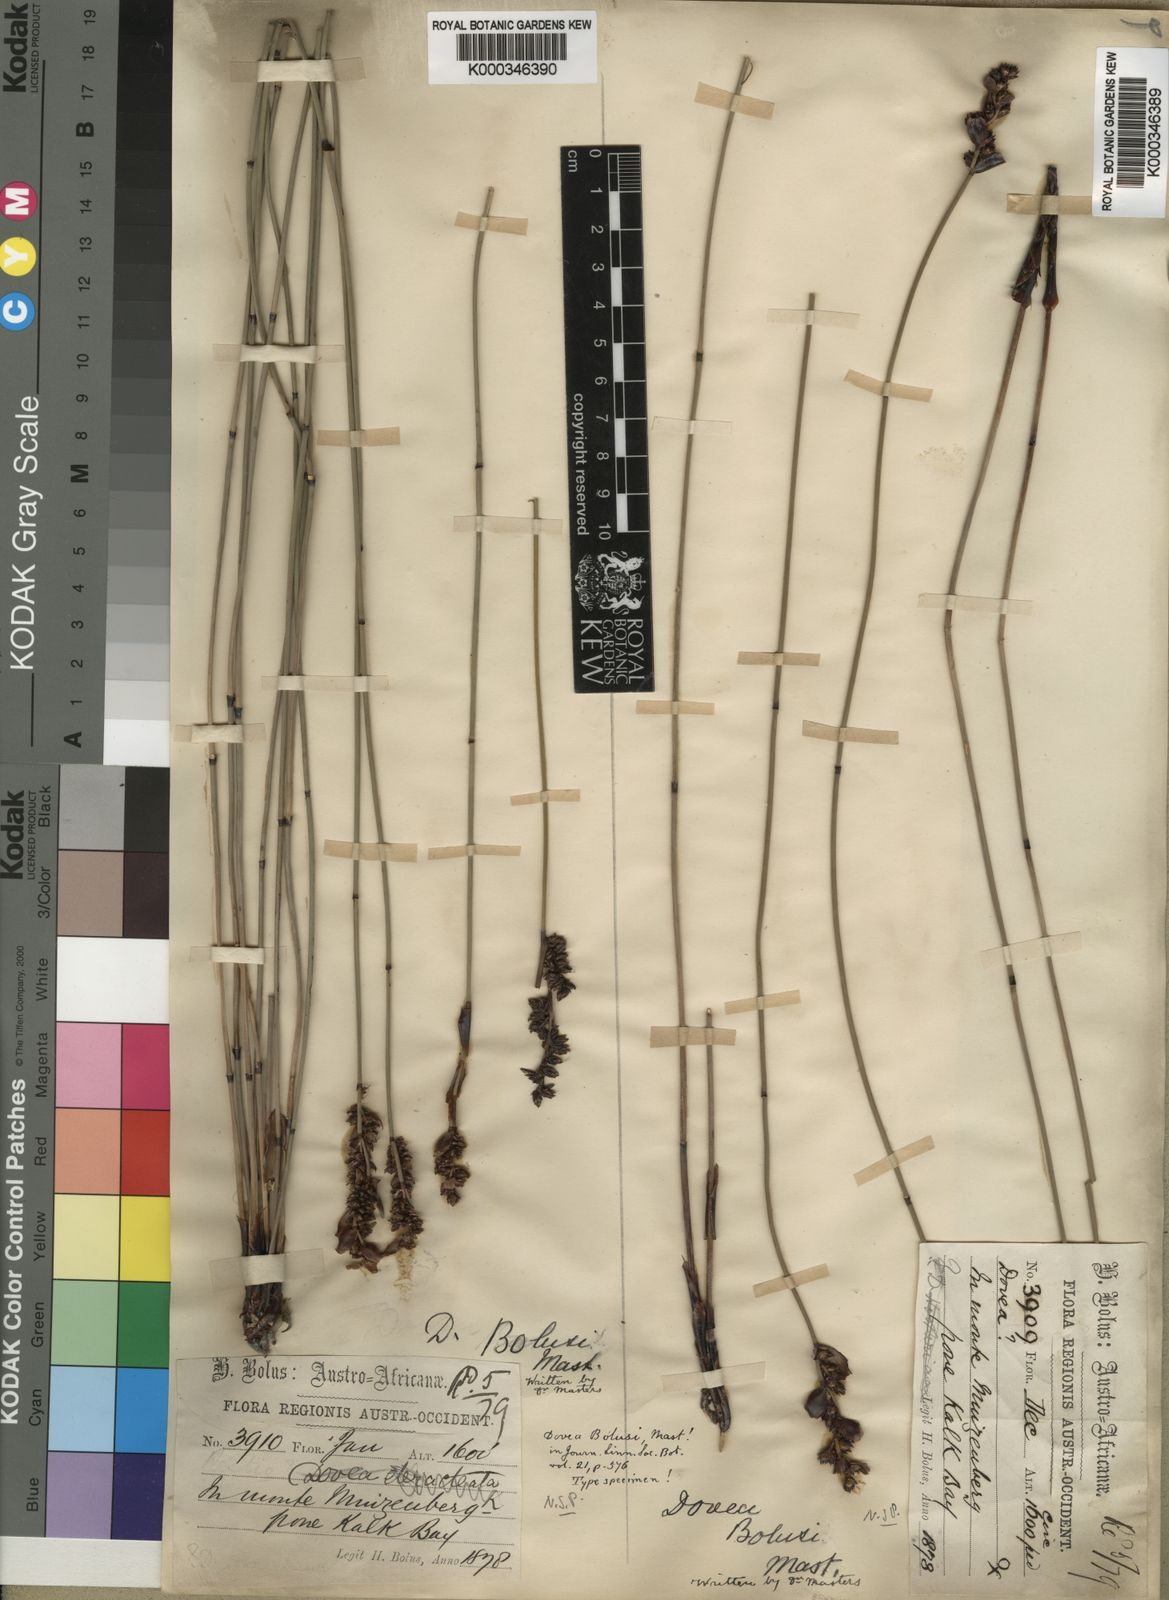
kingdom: Plantae
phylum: Tracheophyta
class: Liliopsida
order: Poales
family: Restionaceae
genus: Elegia
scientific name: Elegia hookeriana
